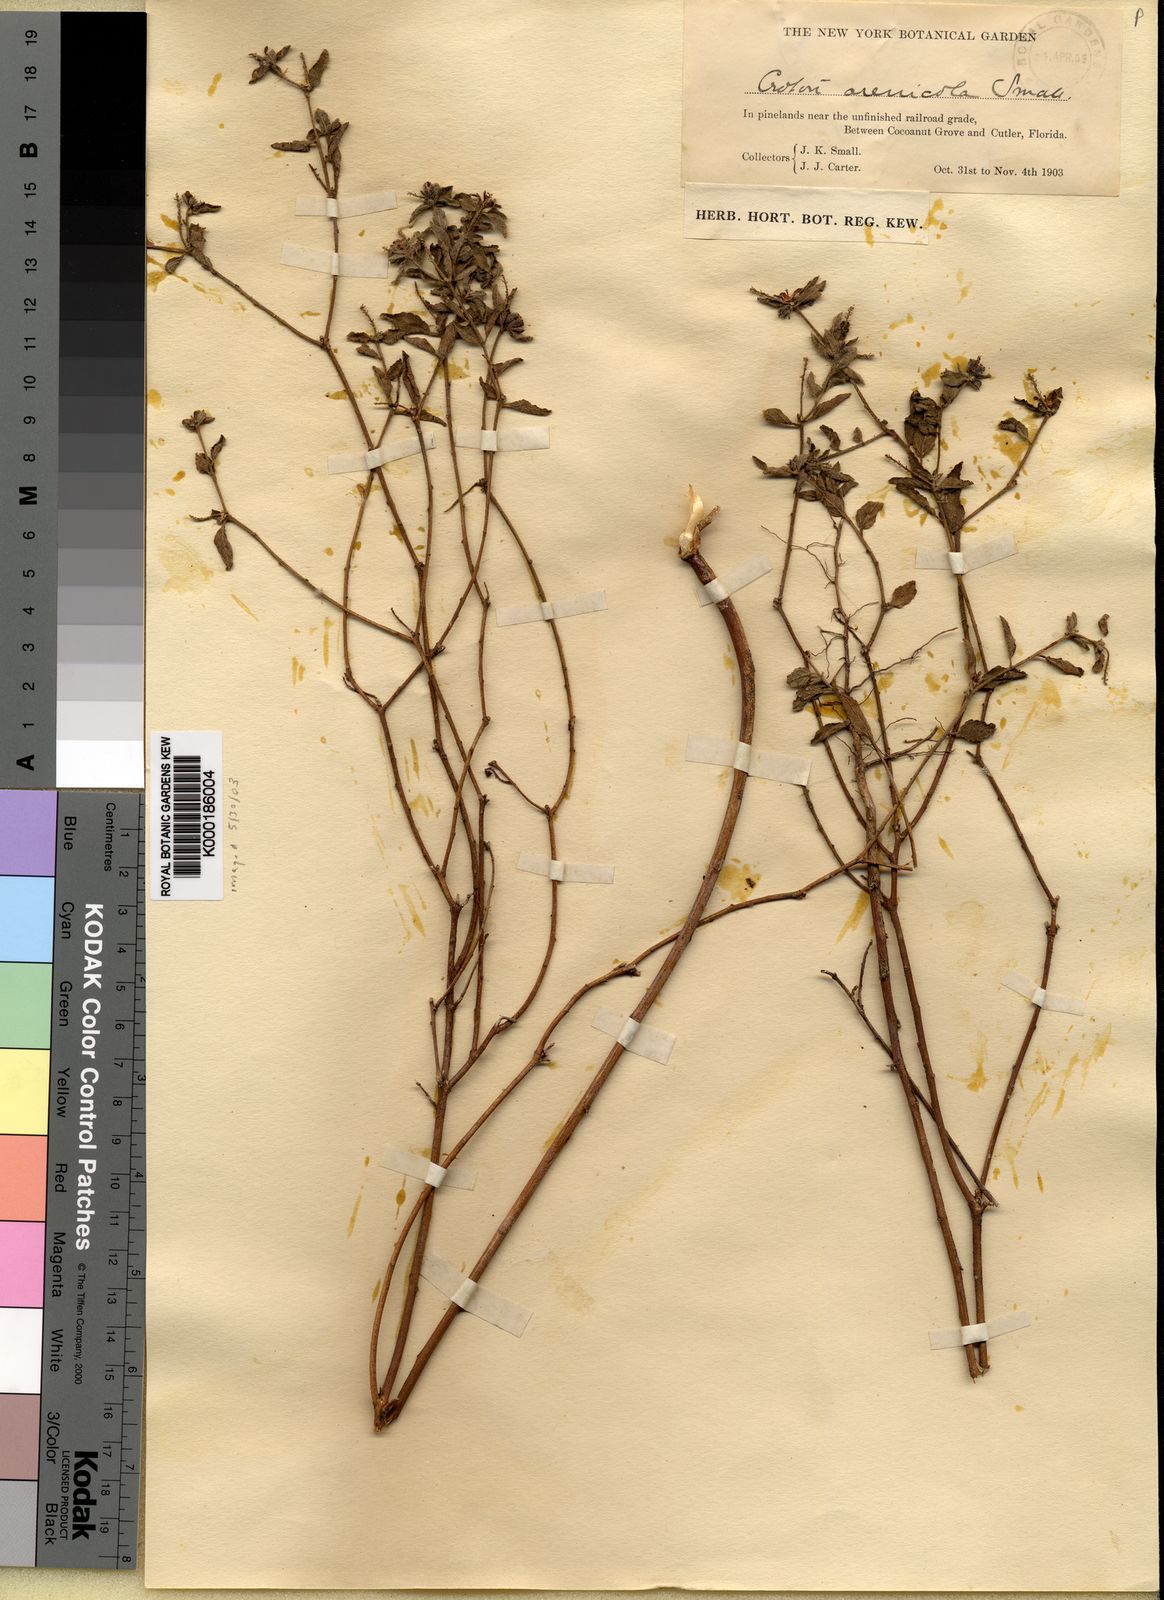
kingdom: Plantae
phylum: Tracheophyta
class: Magnoliopsida
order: Malpighiales
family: Euphorbiaceae
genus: Croton
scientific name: Croton glandulosus
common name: Tropic croton
